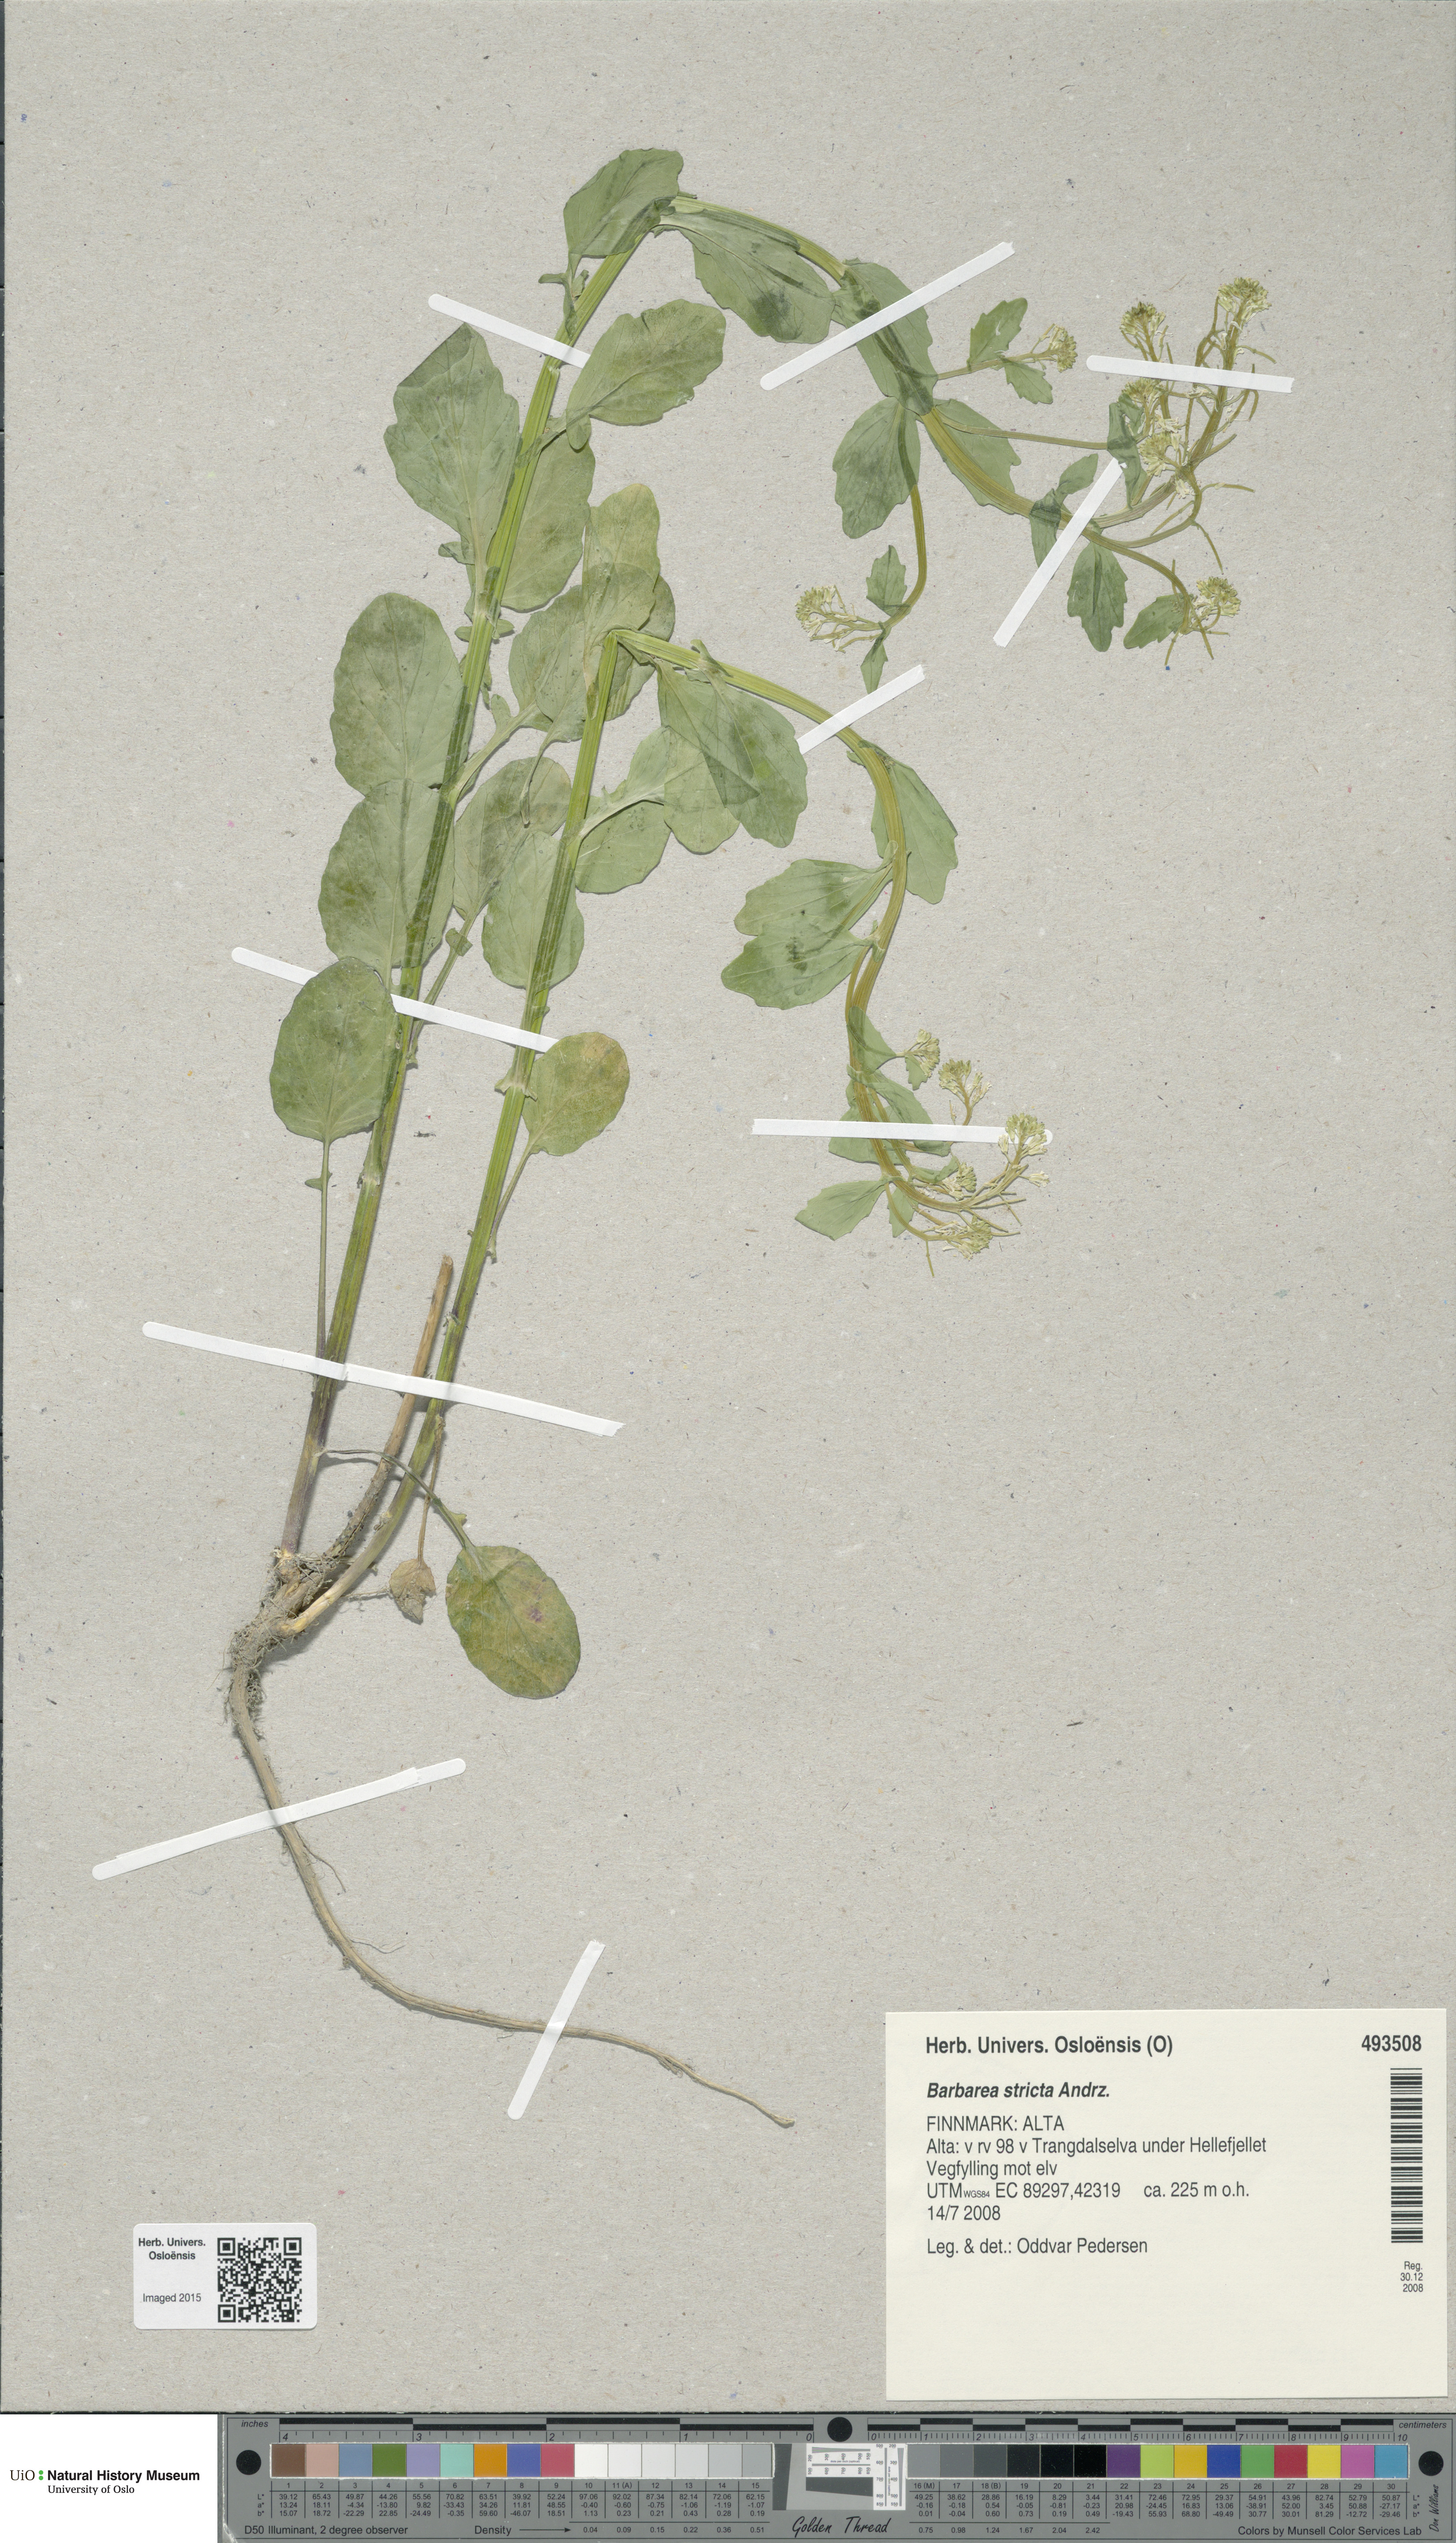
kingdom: Plantae
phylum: Tracheophyta
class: Magnoliopsida
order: Brassicales
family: Brassicaceae
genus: Barbarea
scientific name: Barbarea stricta
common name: Small-flowered winter-cress
